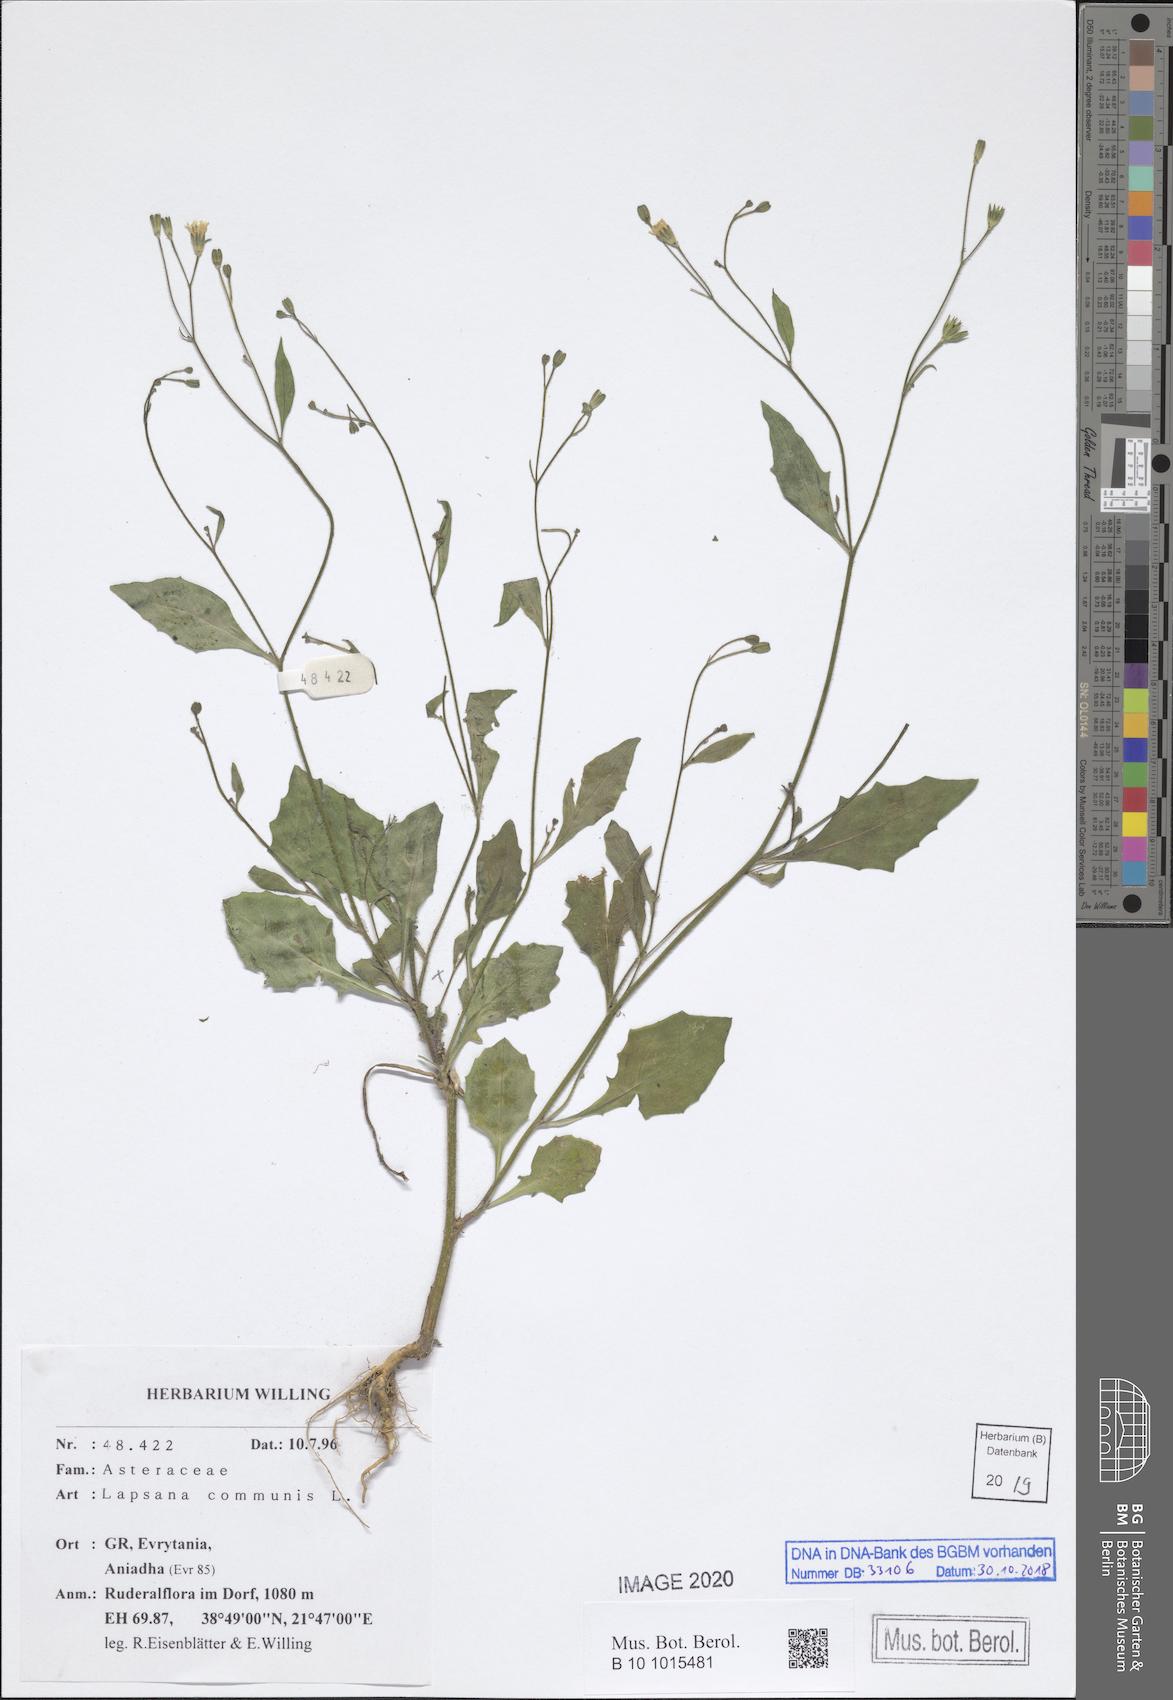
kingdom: Plantae
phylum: Tracheophyta
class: Magnoliopsida
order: Asterales
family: Asteraceae
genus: Lapsana
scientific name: Lapsana communis
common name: Nipplewort
